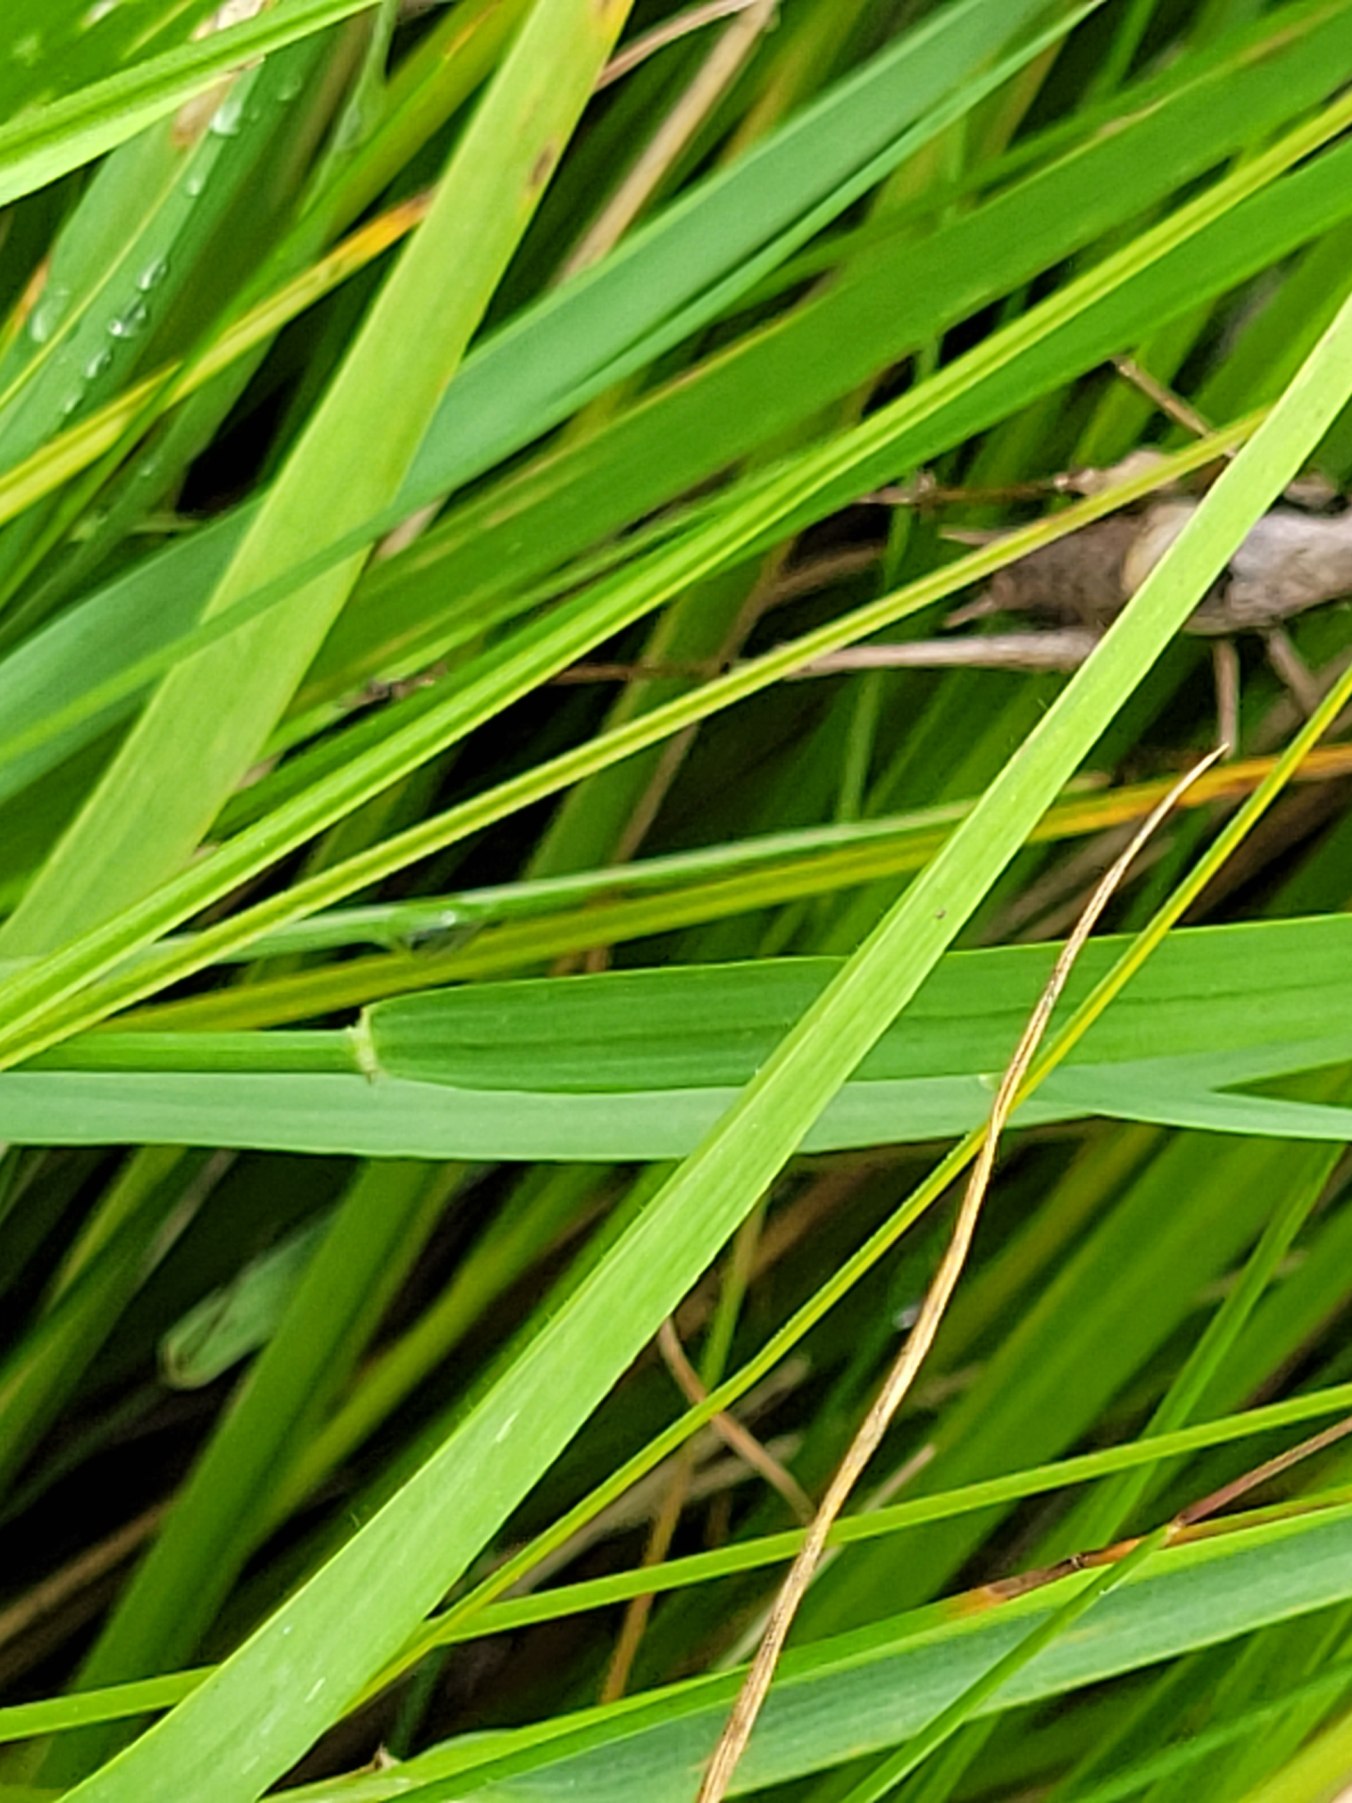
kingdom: Animalia
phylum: Arthropoda
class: Insecta
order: Orthoptera
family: Tettigoniidae
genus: Pholidoptera
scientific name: Pholidoptera griseoaptera
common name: Buskgræshoppe
